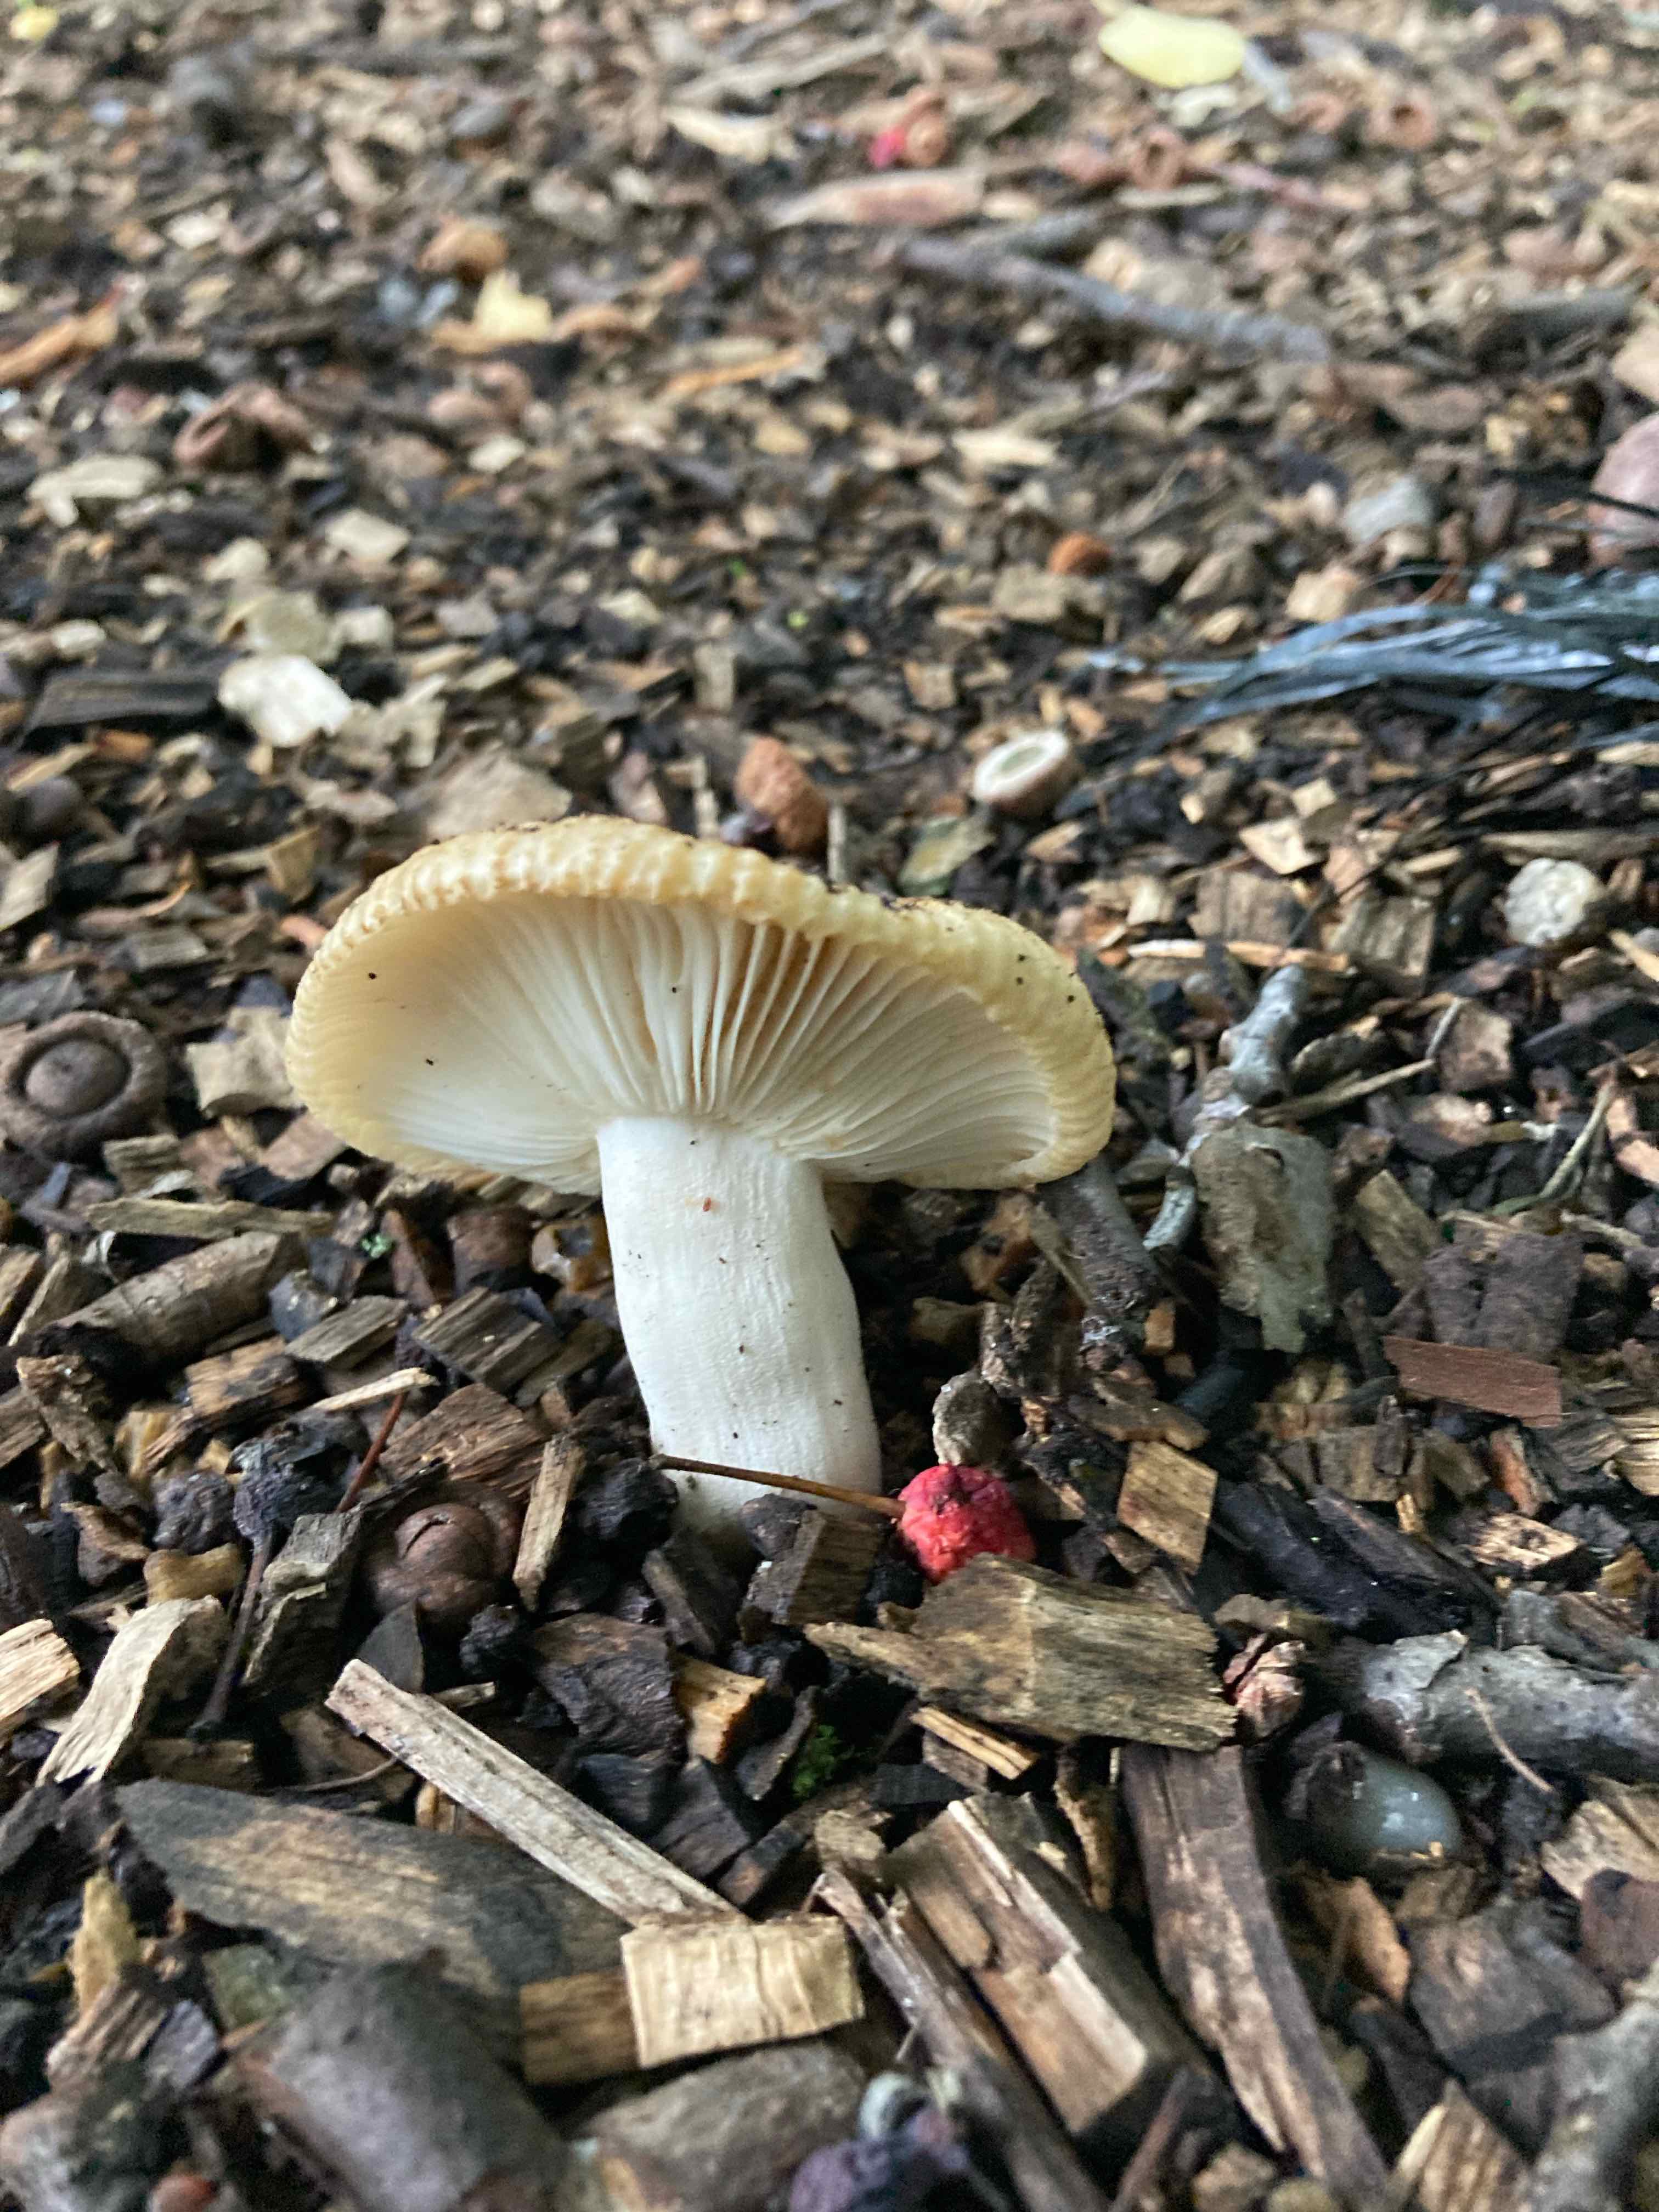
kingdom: Fungi
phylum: Basidiomycota
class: Agaricomycetes
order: Russulales
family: Russulaceae
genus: Russula
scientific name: Russula
